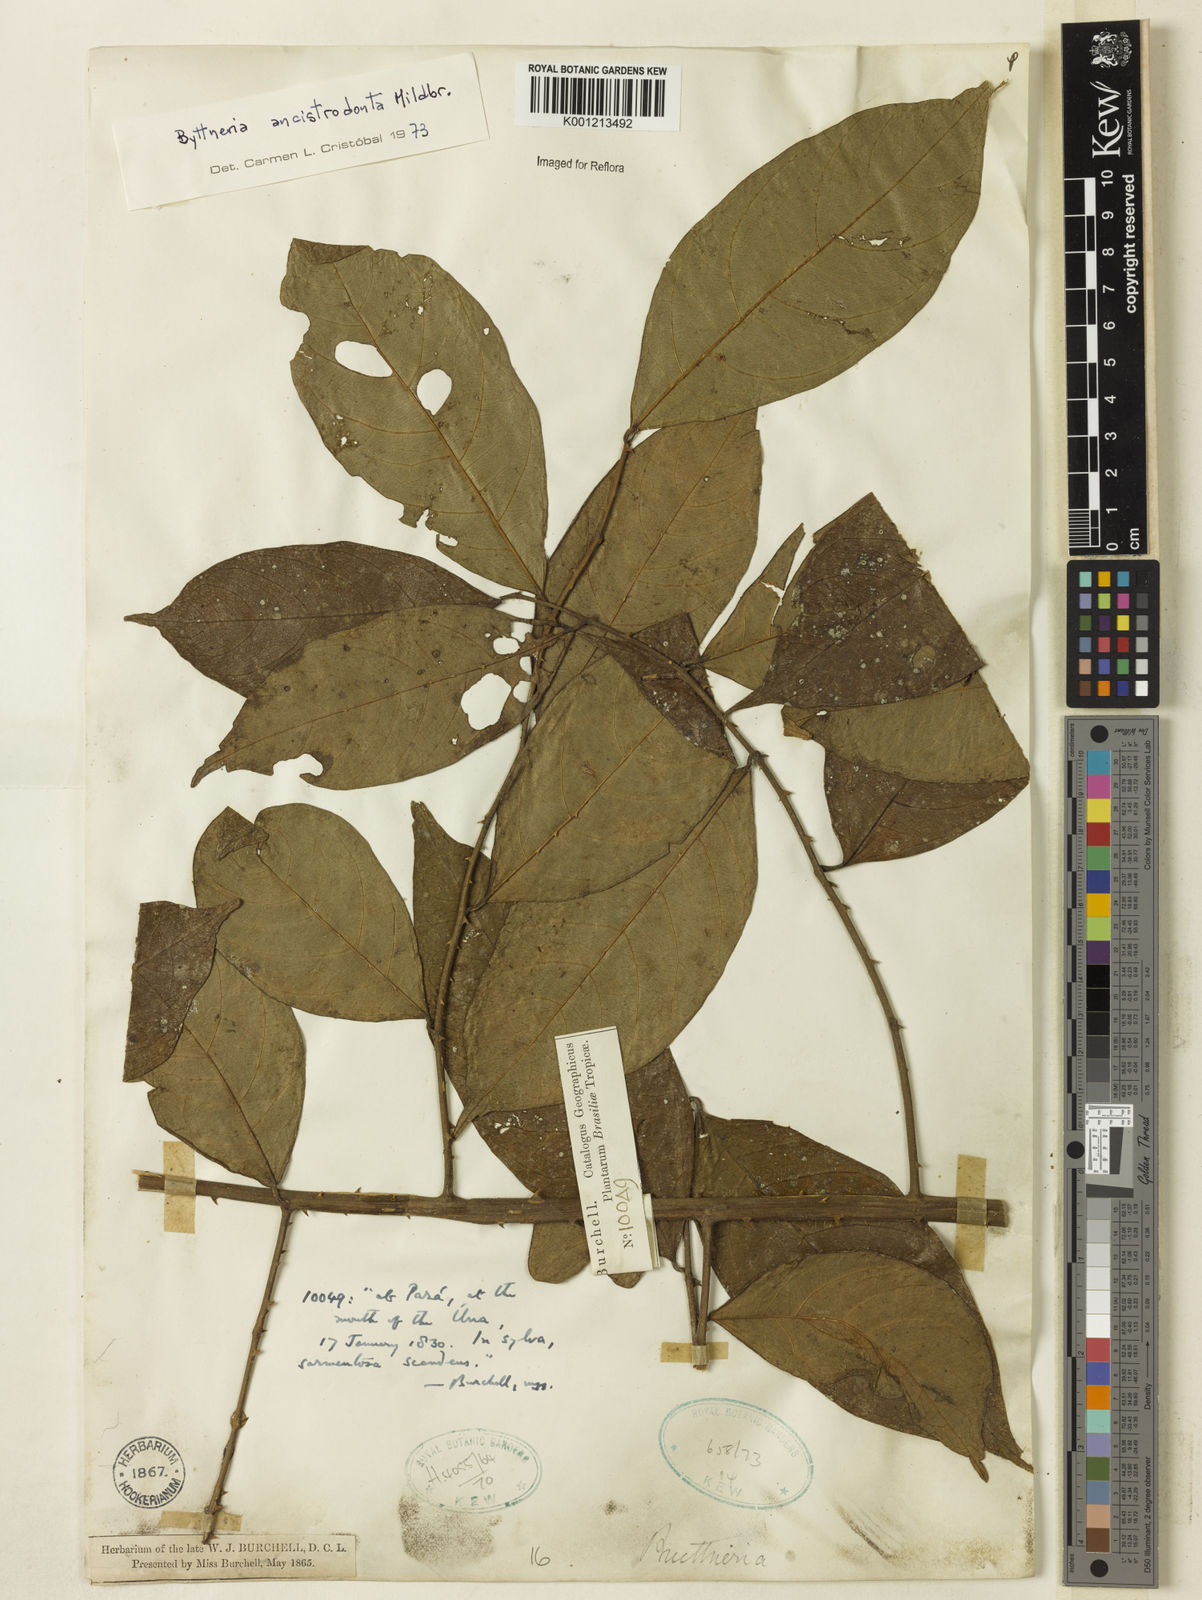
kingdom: Plantae
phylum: Tracheophyta
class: Magnoliopsida
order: Malvales
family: Malvaceae
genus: Byttneria
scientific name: Byttneria ancistrodonta
